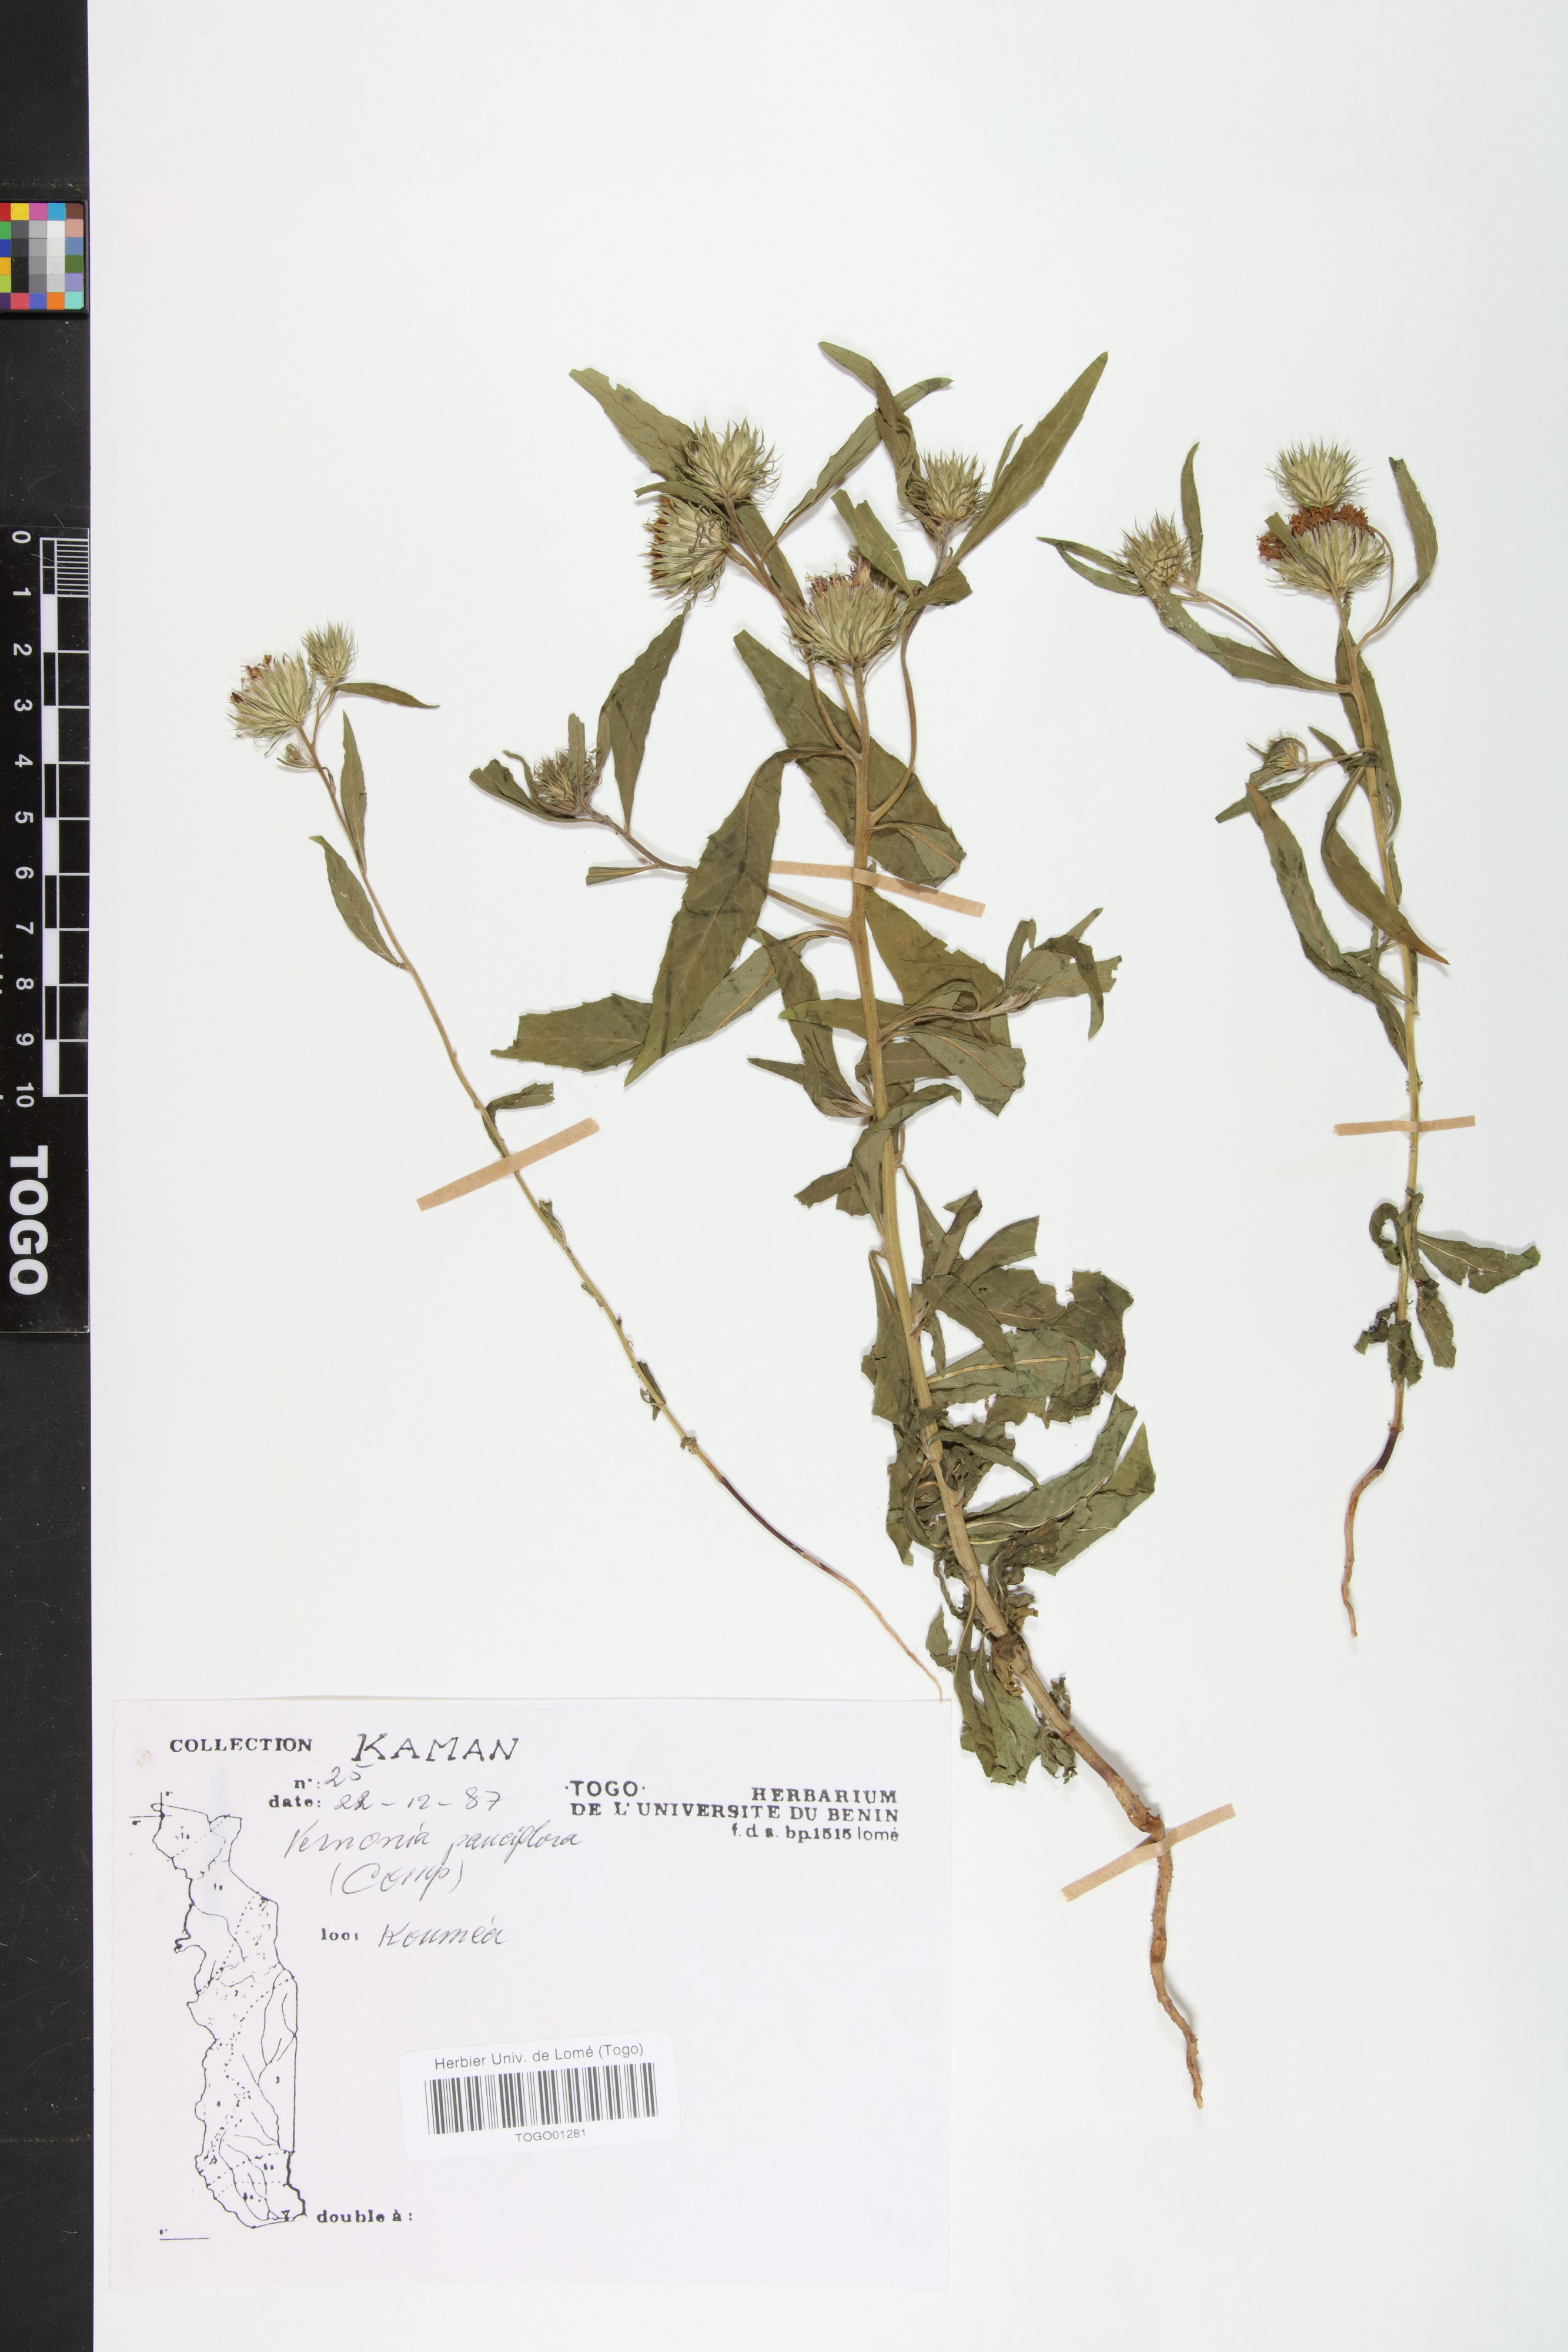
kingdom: Plantae
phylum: Tracheophyta
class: Magnoliopsida
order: Asterales
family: Asteraceae
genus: Vernonia
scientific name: Vernonia galamensis
